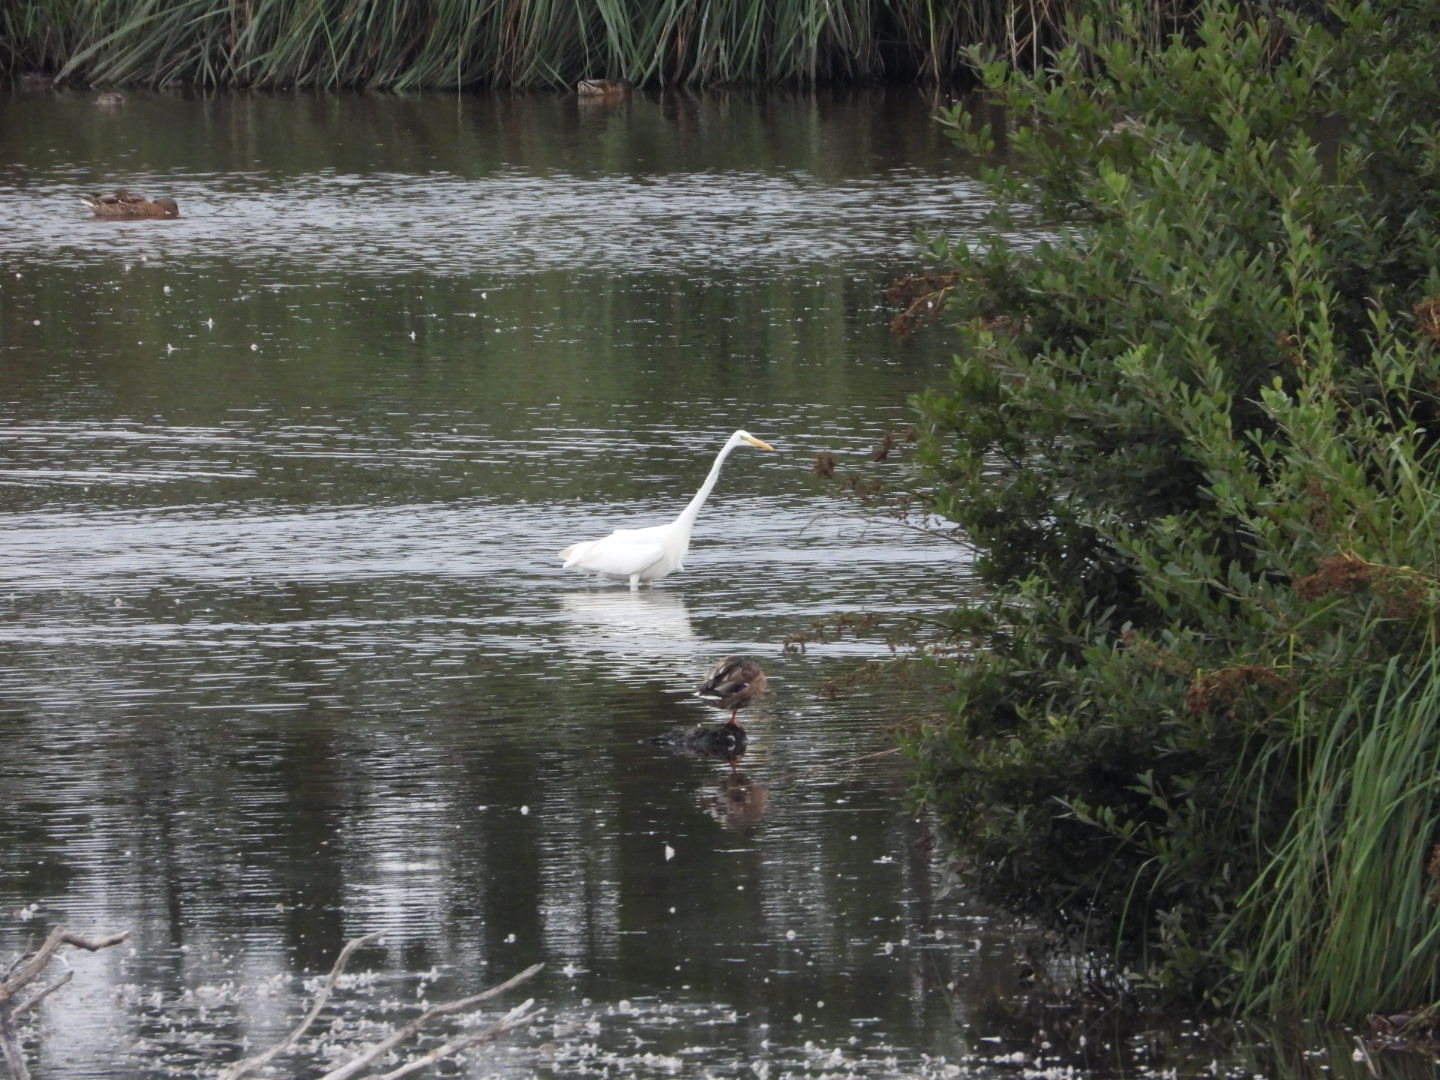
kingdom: Animalia
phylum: Chordata
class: Aves
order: Pelecaniformes
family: Ardeidae
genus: Ardea
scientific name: Ardea alba
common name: Sølvhejre
